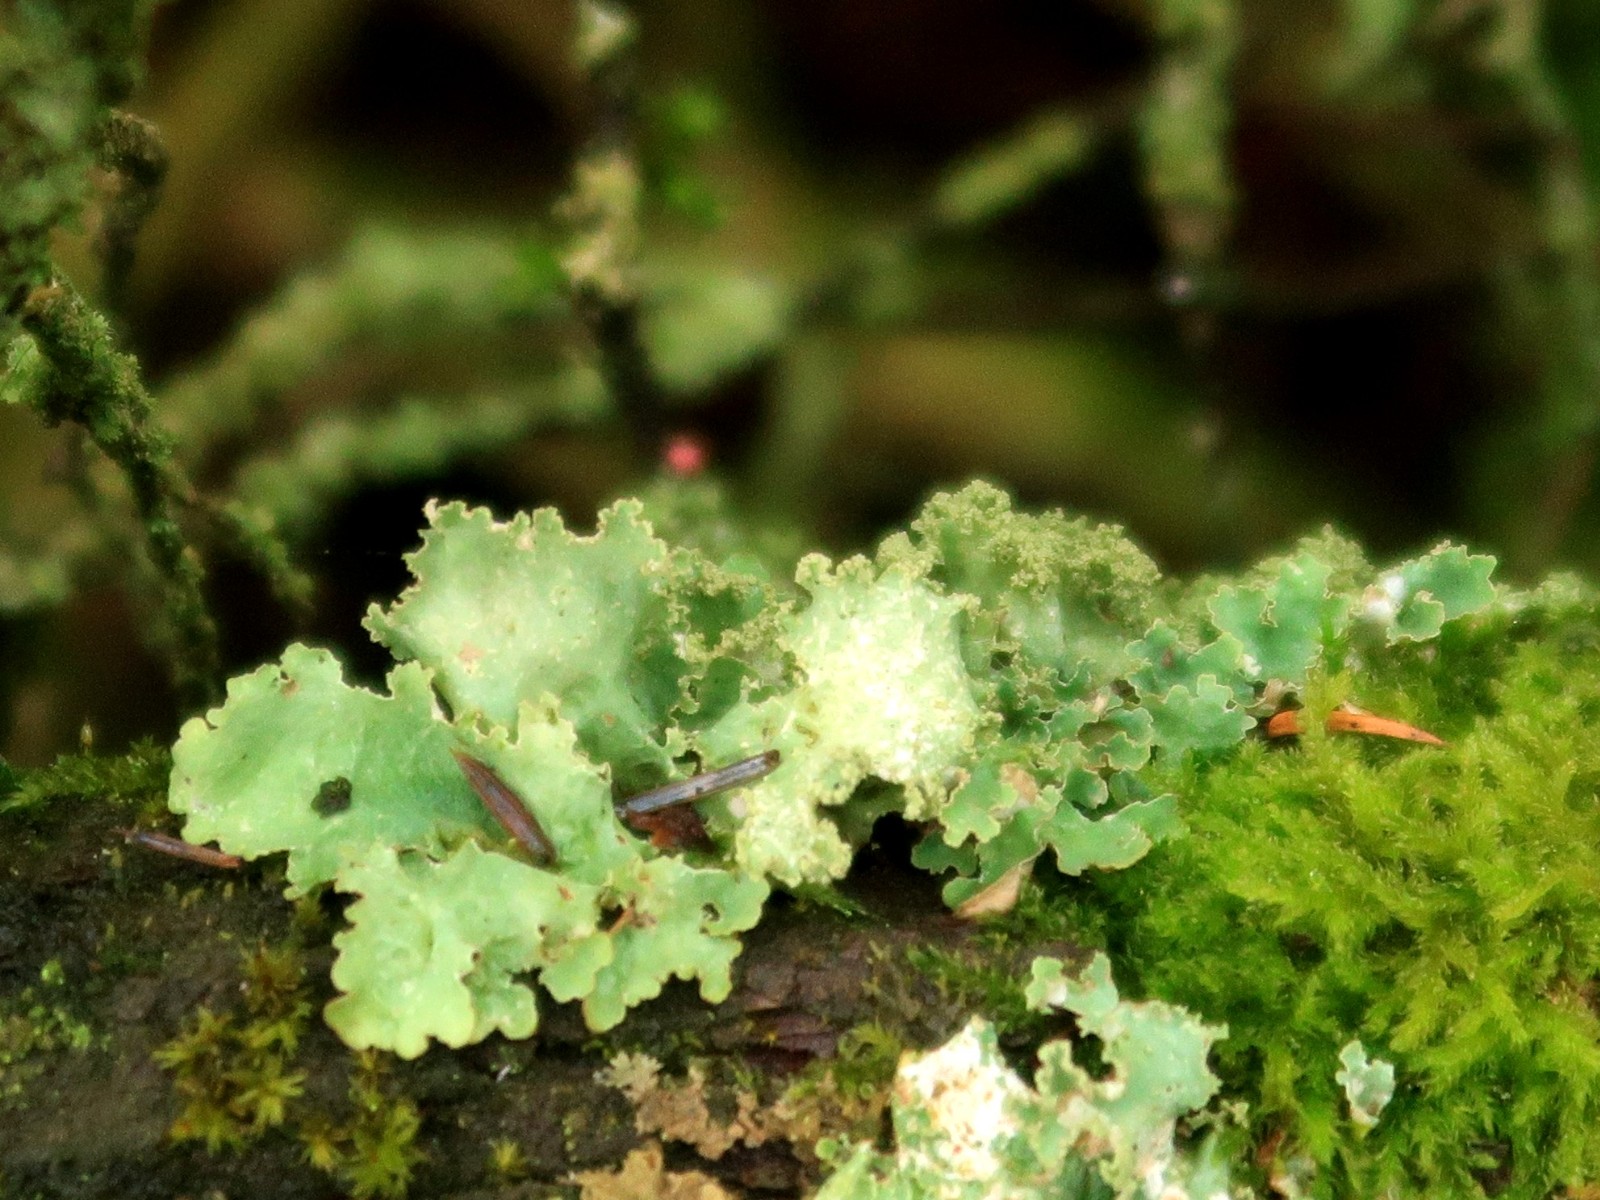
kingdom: Fungi
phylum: Ascomycota
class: Lecanoromycetes
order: Lecanorales
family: Parmeliaceae
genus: Platismatia
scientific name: Platismatia glauca
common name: blågrå papirlav
